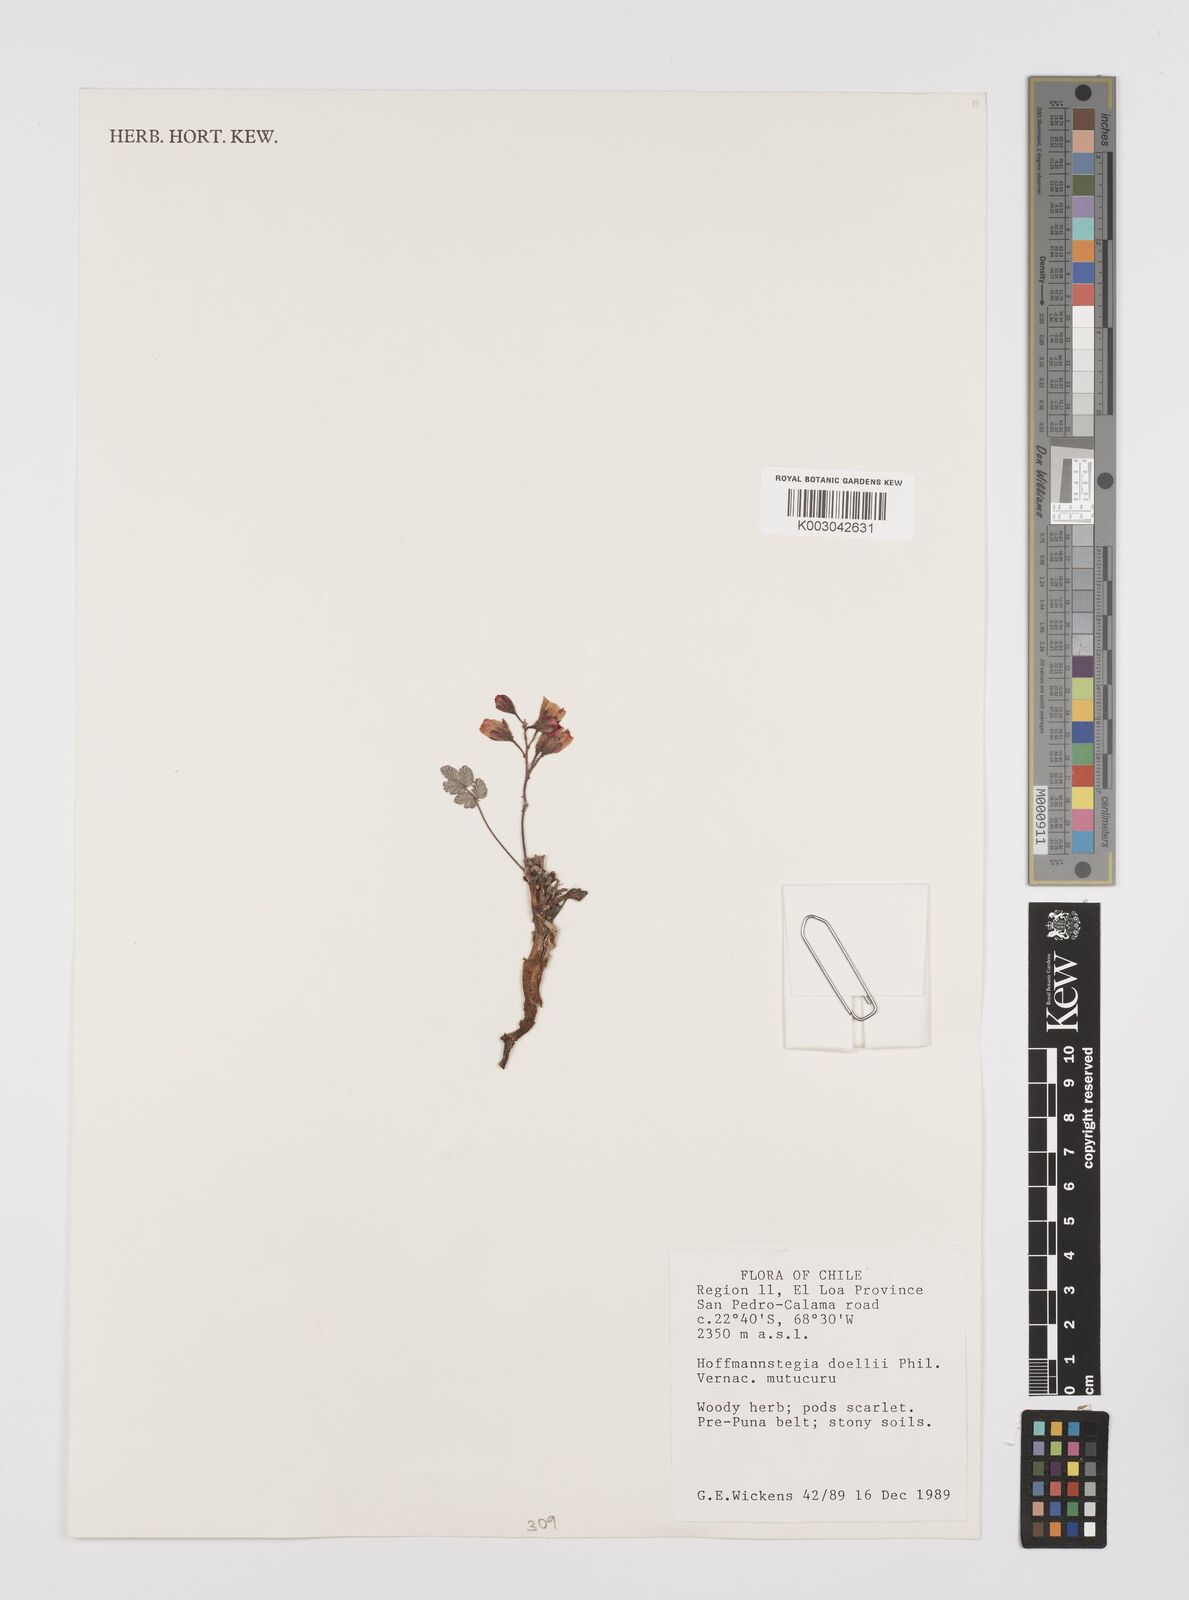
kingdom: Plantae
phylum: Tracheophyta
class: Magnoliopsida
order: Fabales
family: Fabaceae
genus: Hoffmannseggia
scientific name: Hoffmannseggia doellii
